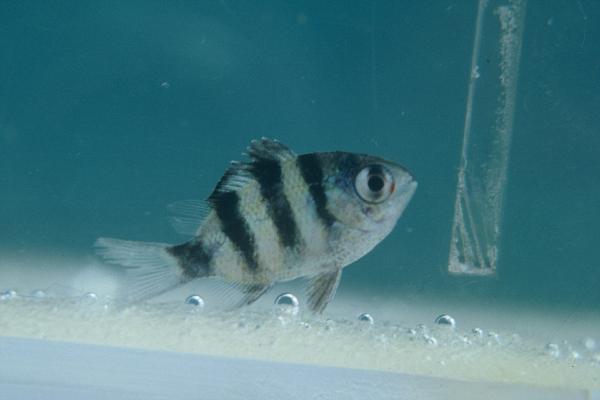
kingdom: Animalia
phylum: Chordata
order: Perciformes
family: Pomacentridae
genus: Abudefduf
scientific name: Abudefduf natalensis
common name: Natal sergeant
